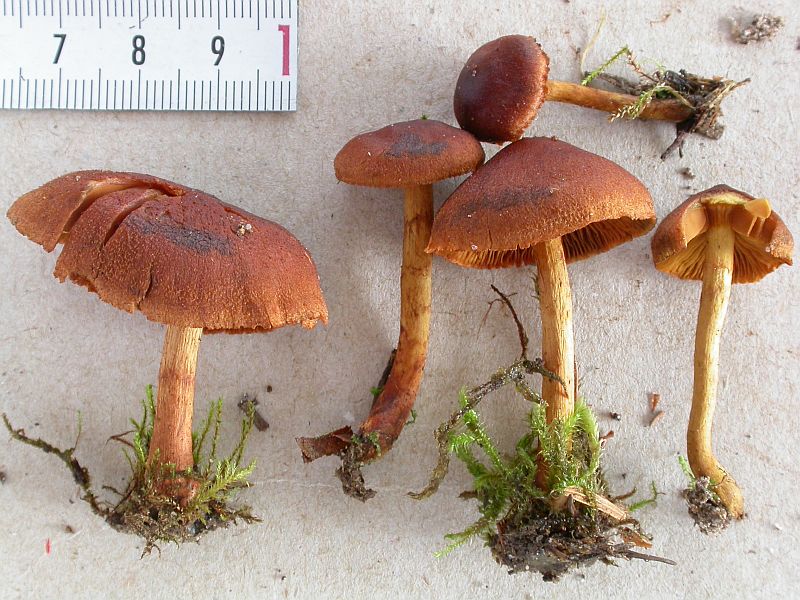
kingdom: Fungi
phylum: Basidiomycota
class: Agaricomycetes
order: Agaricales
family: Cortinariaceae
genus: Cortinarius
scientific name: Cortinarius cinnamomeus
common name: kanel-slørhat
